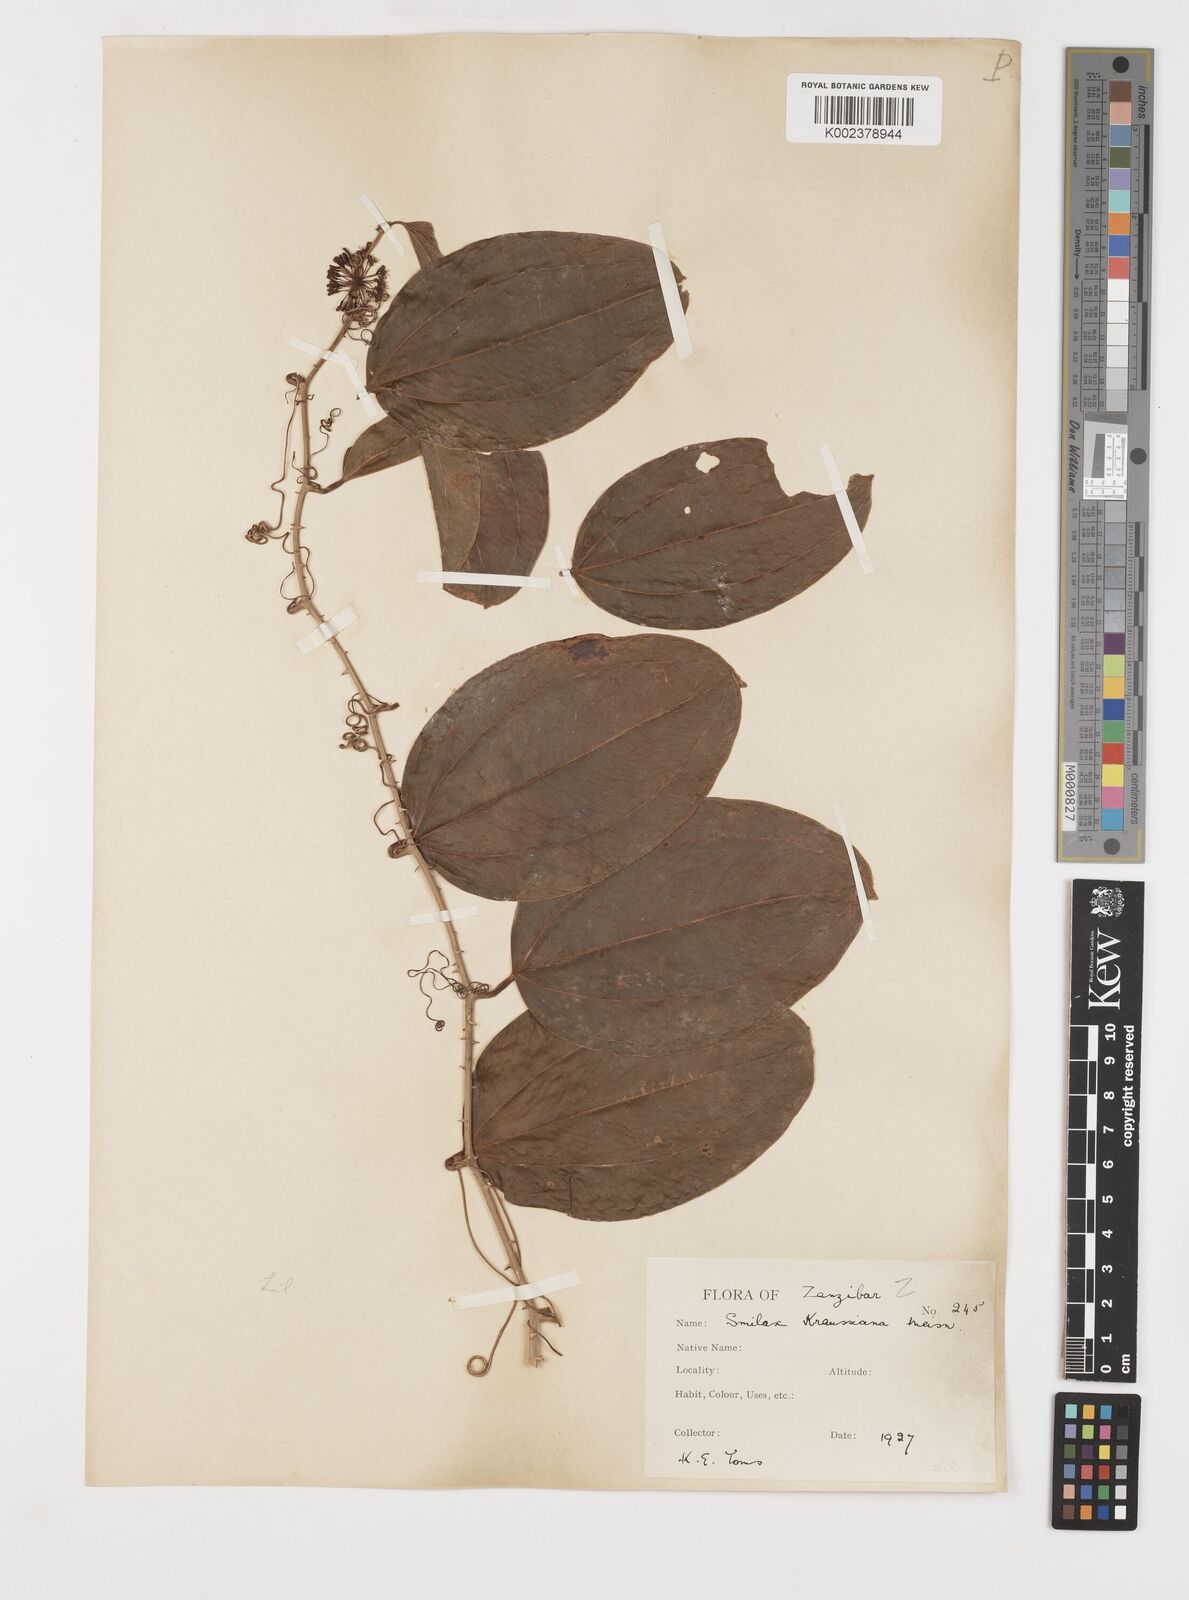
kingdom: Plantae
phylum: Tracheophyta
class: Liliopsida
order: Liliales
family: Smilacaceae
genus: Smilax
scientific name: Smilax anceps
